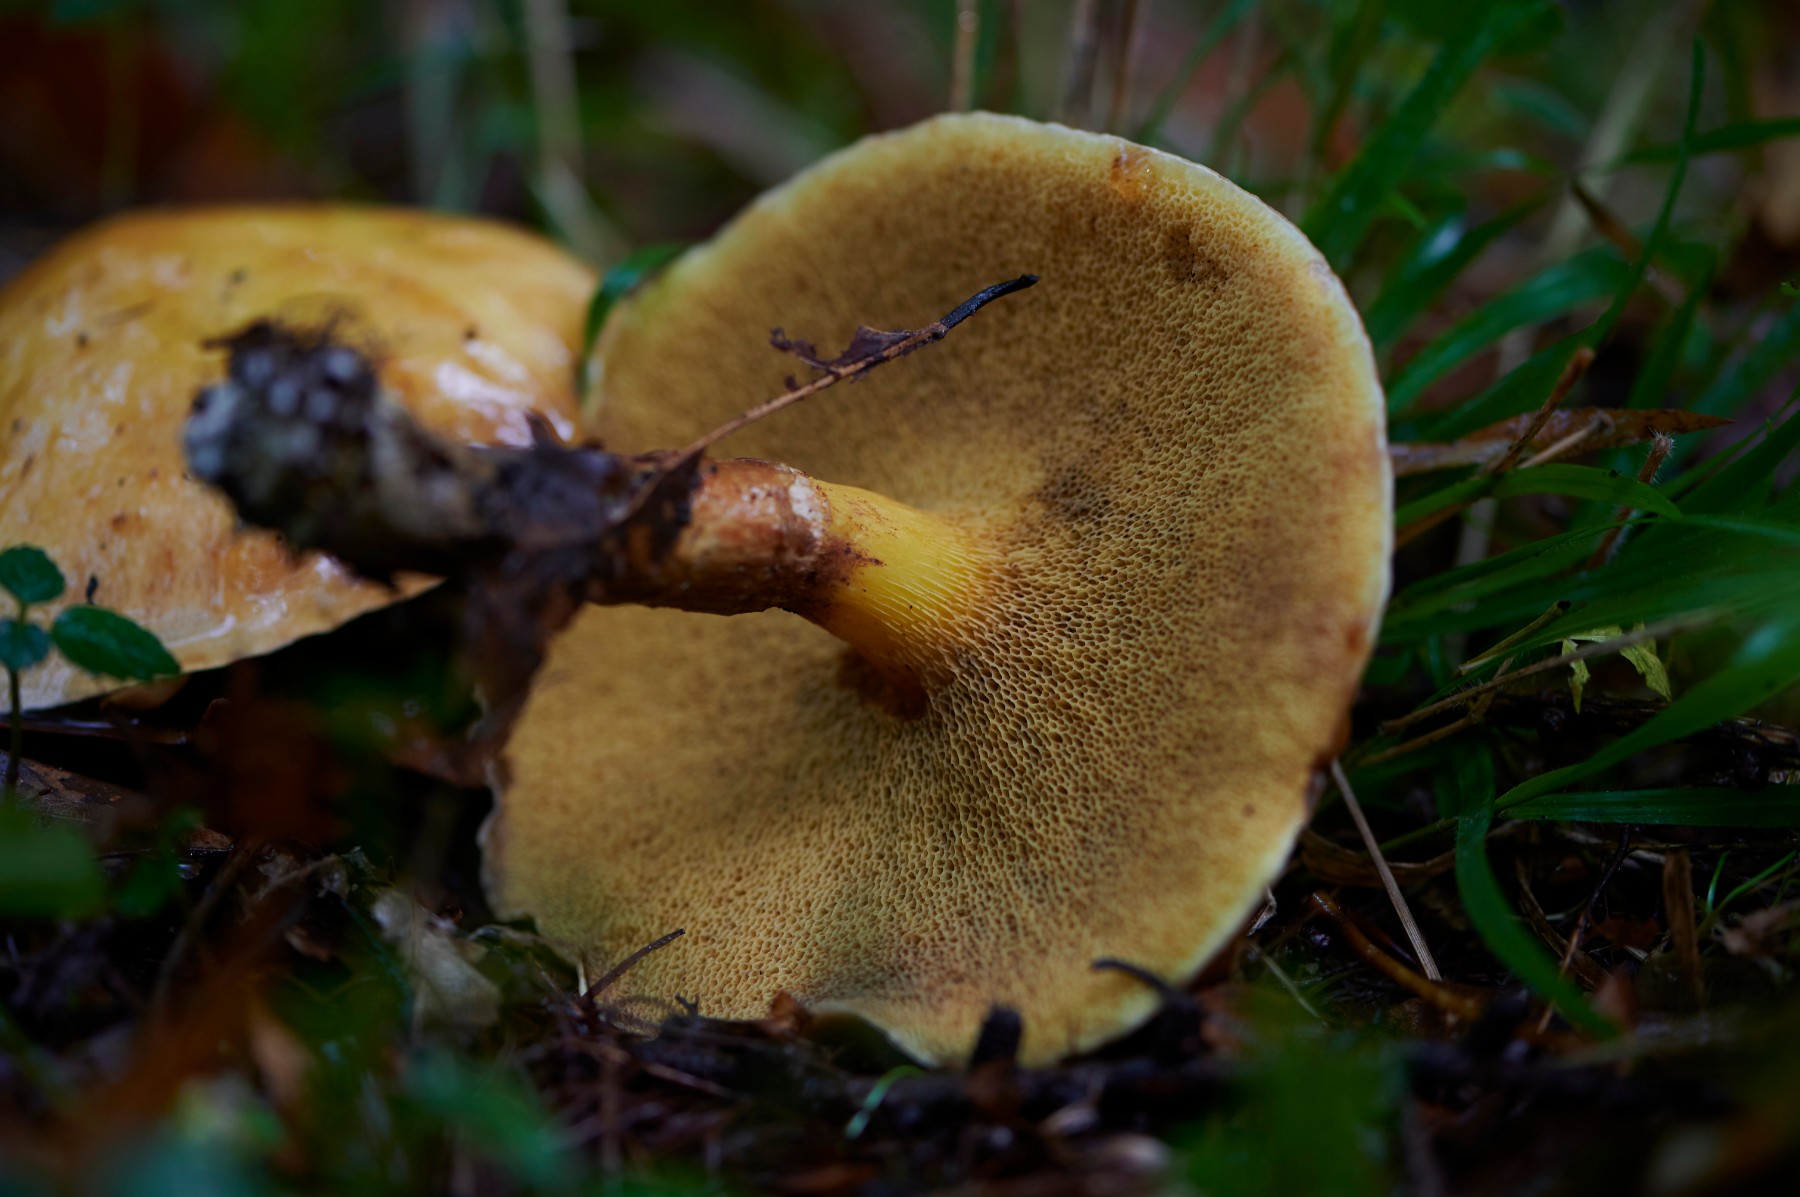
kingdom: Fungi
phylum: Basidiomycota
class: Agaricomycetes
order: Boletales
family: Suillaceae
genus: Suillus
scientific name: Suillus grevillei
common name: lærke-slimrørhat
